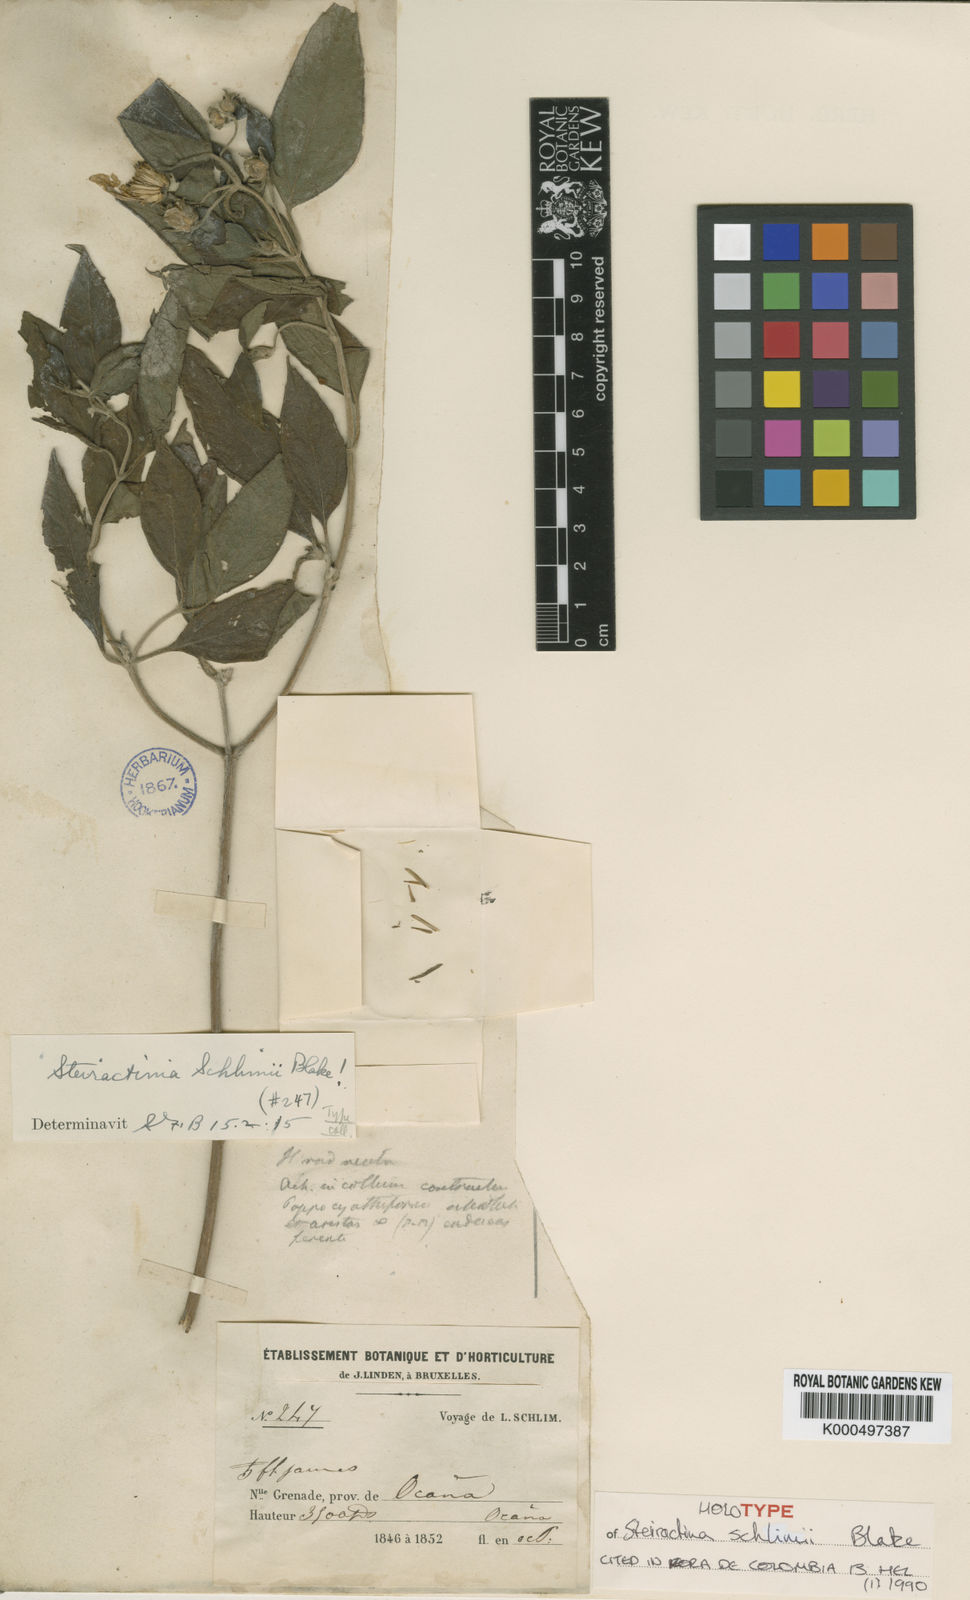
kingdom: Plantae
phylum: Tracheophyta
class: Magnoliopsida
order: Asterales
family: Asteraceae
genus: Steiractinia
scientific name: Steiractinia schlimii
